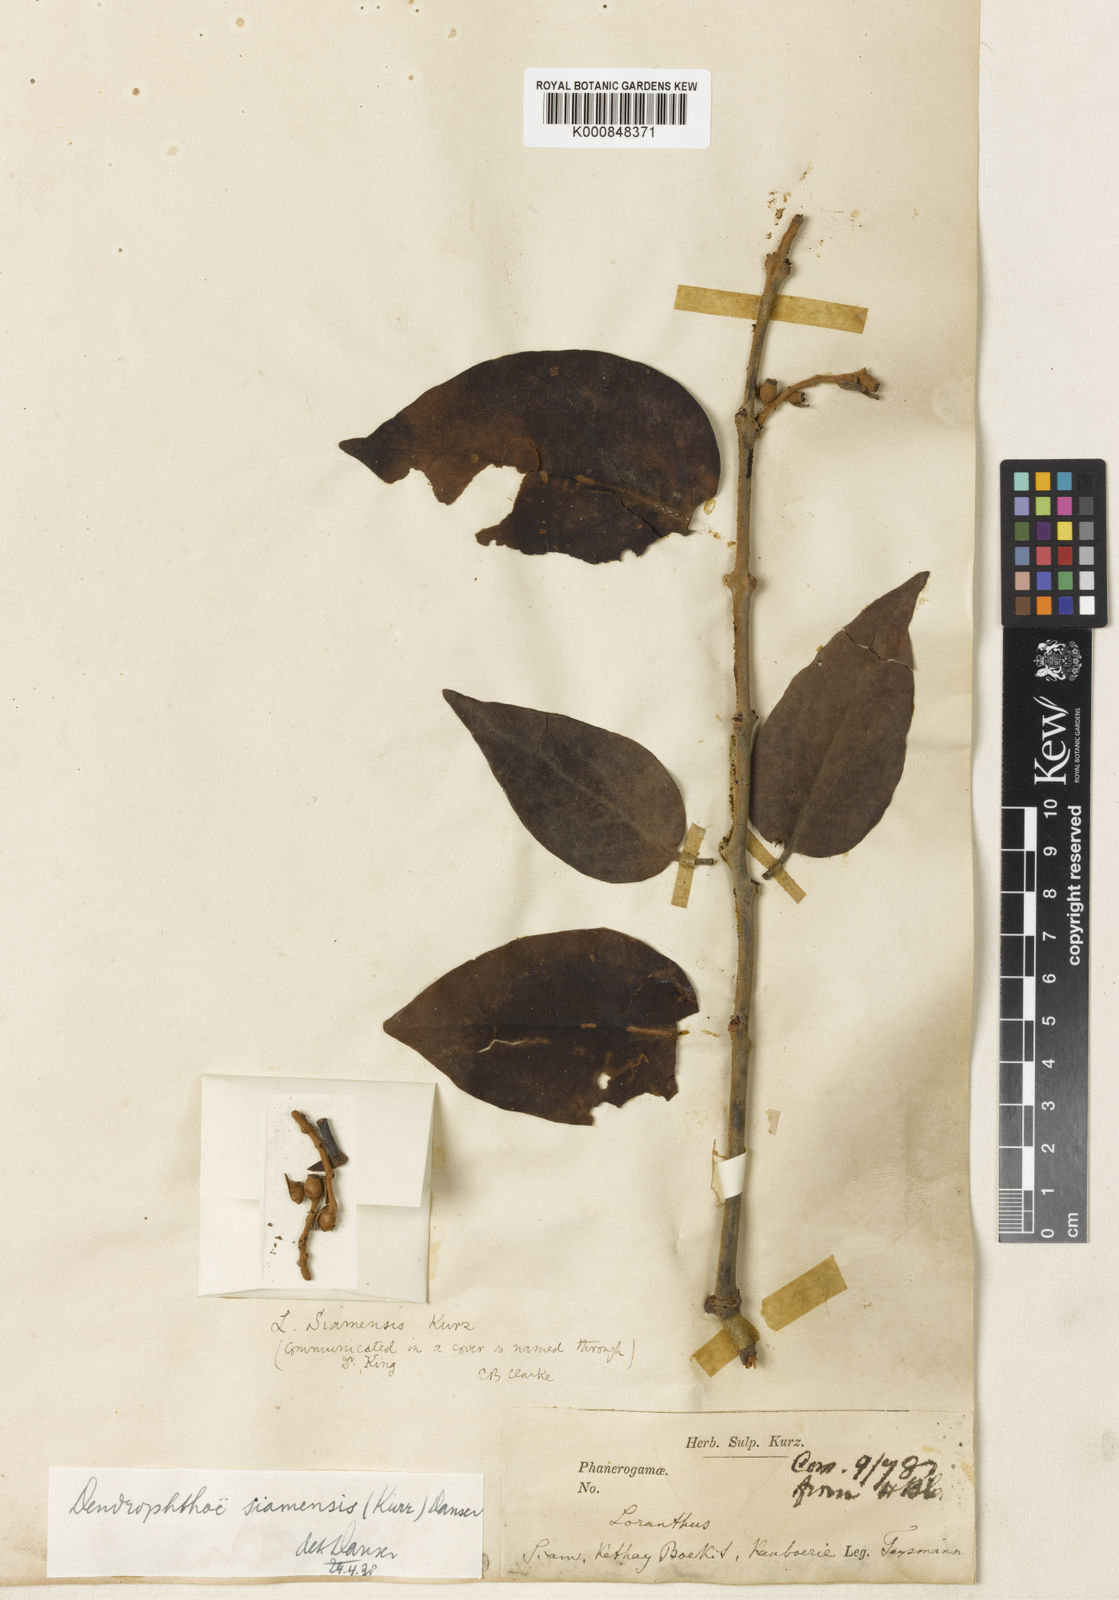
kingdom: Plantae
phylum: Tracheophyta
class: Magnoliopsida
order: Santalales
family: Loranthaceae
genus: Dendrophthoe
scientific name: Dendrophthoe lanosa
